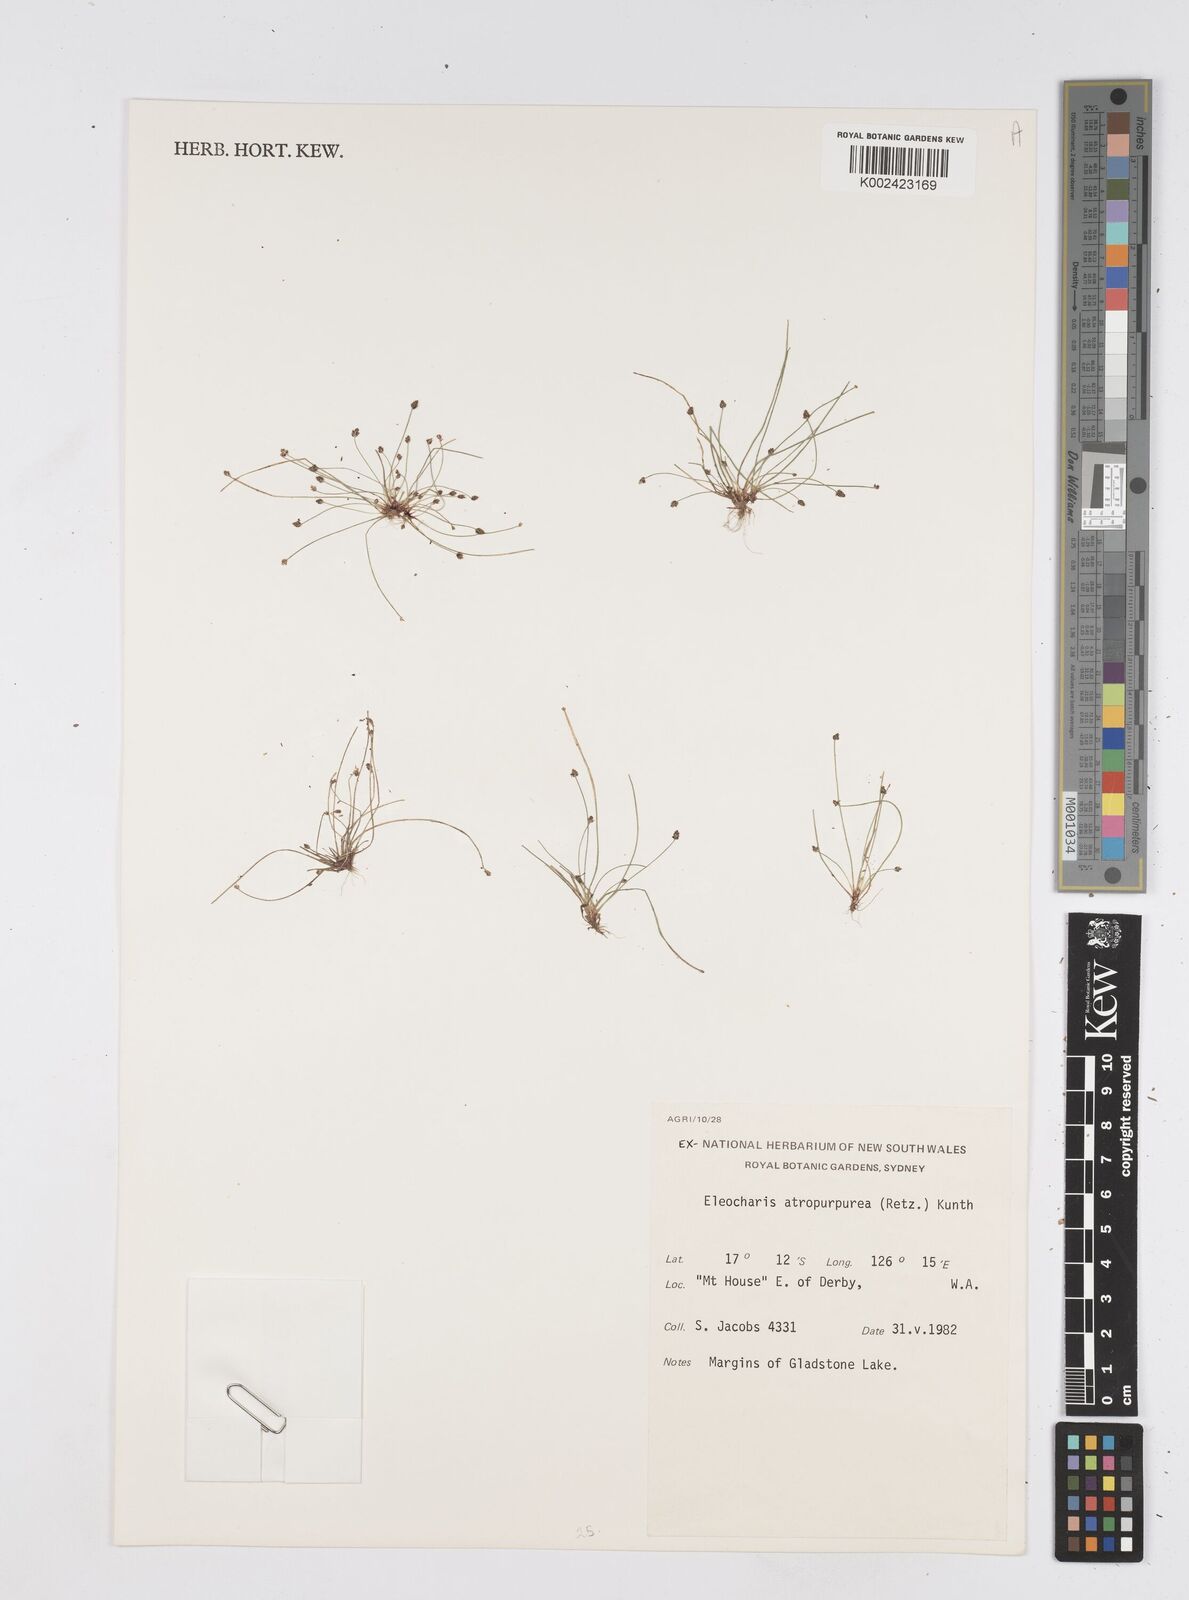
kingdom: Plantae
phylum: Tracheophyta
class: Liliopsida
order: Poales
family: Cyperaceae
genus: Eleocharis
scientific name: Eleocharis atropurpurea
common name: Purple spikerush
